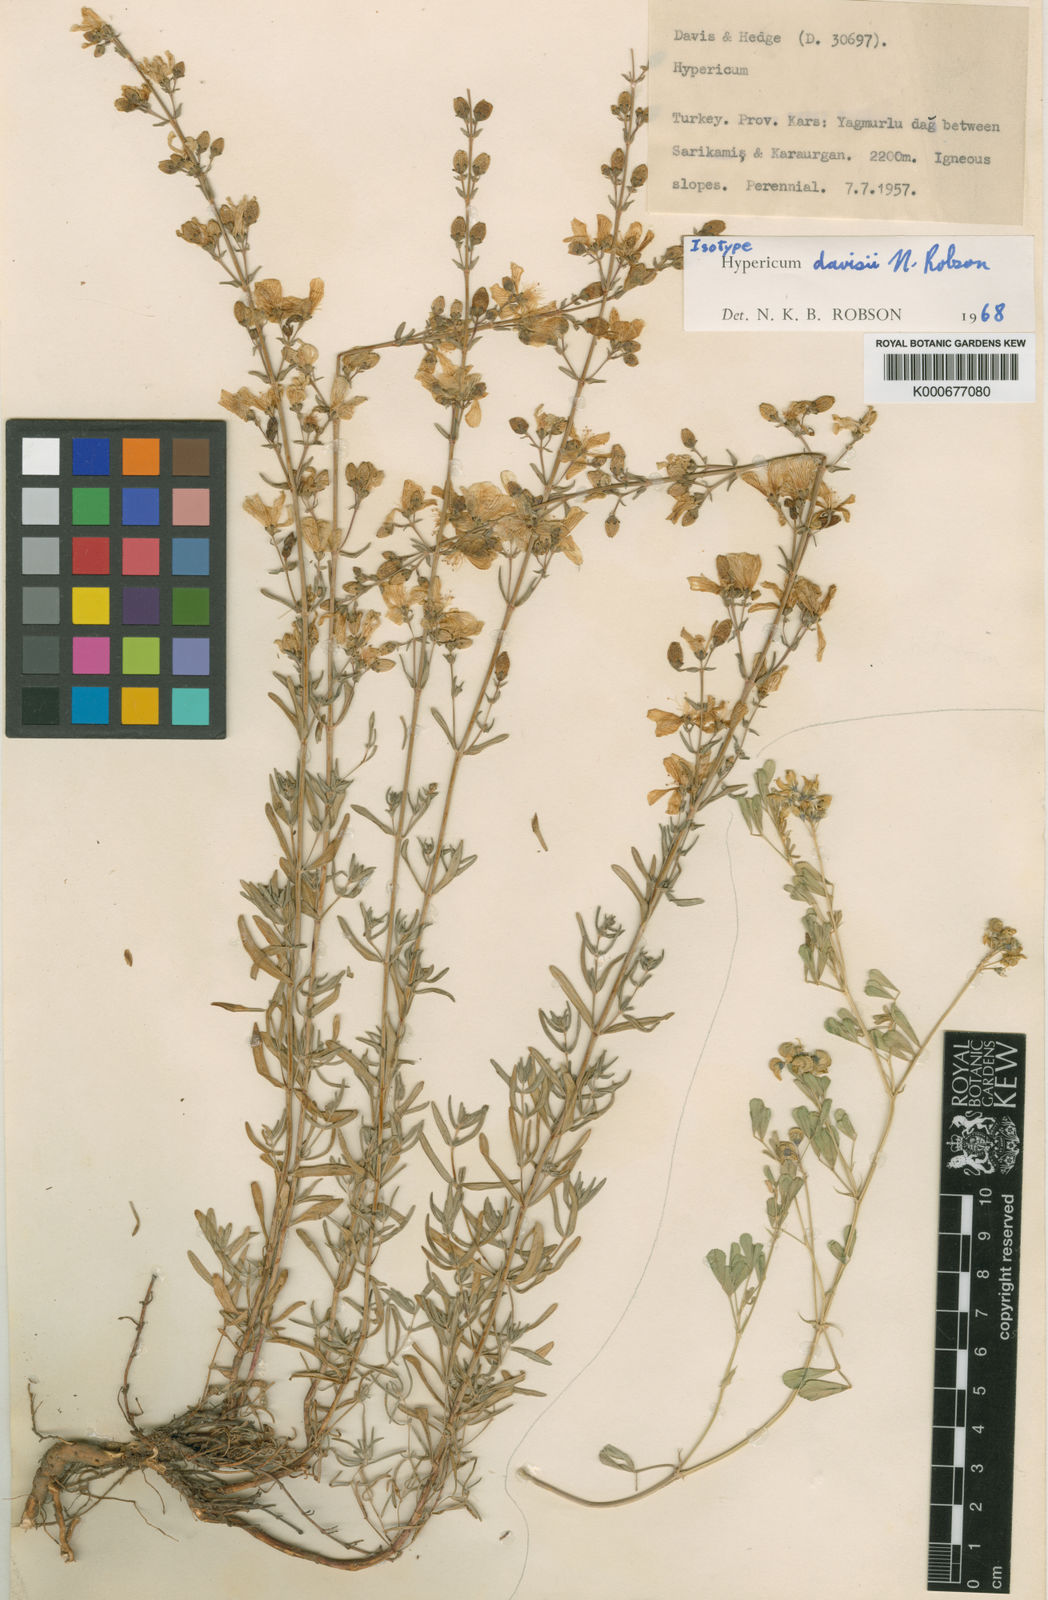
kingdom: Plantae
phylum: Tracheophyta
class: Magnoliopsida
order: Malpighiales
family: Hypericaceae
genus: Hypericum
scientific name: Hypericum davisii
